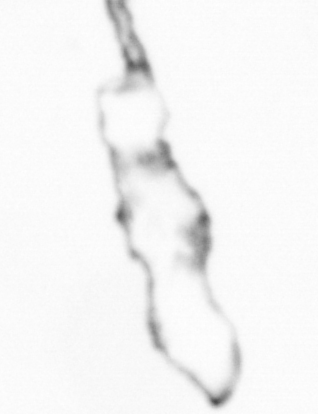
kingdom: Chromista
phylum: Ochrophyta
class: Bacillariophyceae
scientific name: Bacillariophyceae
